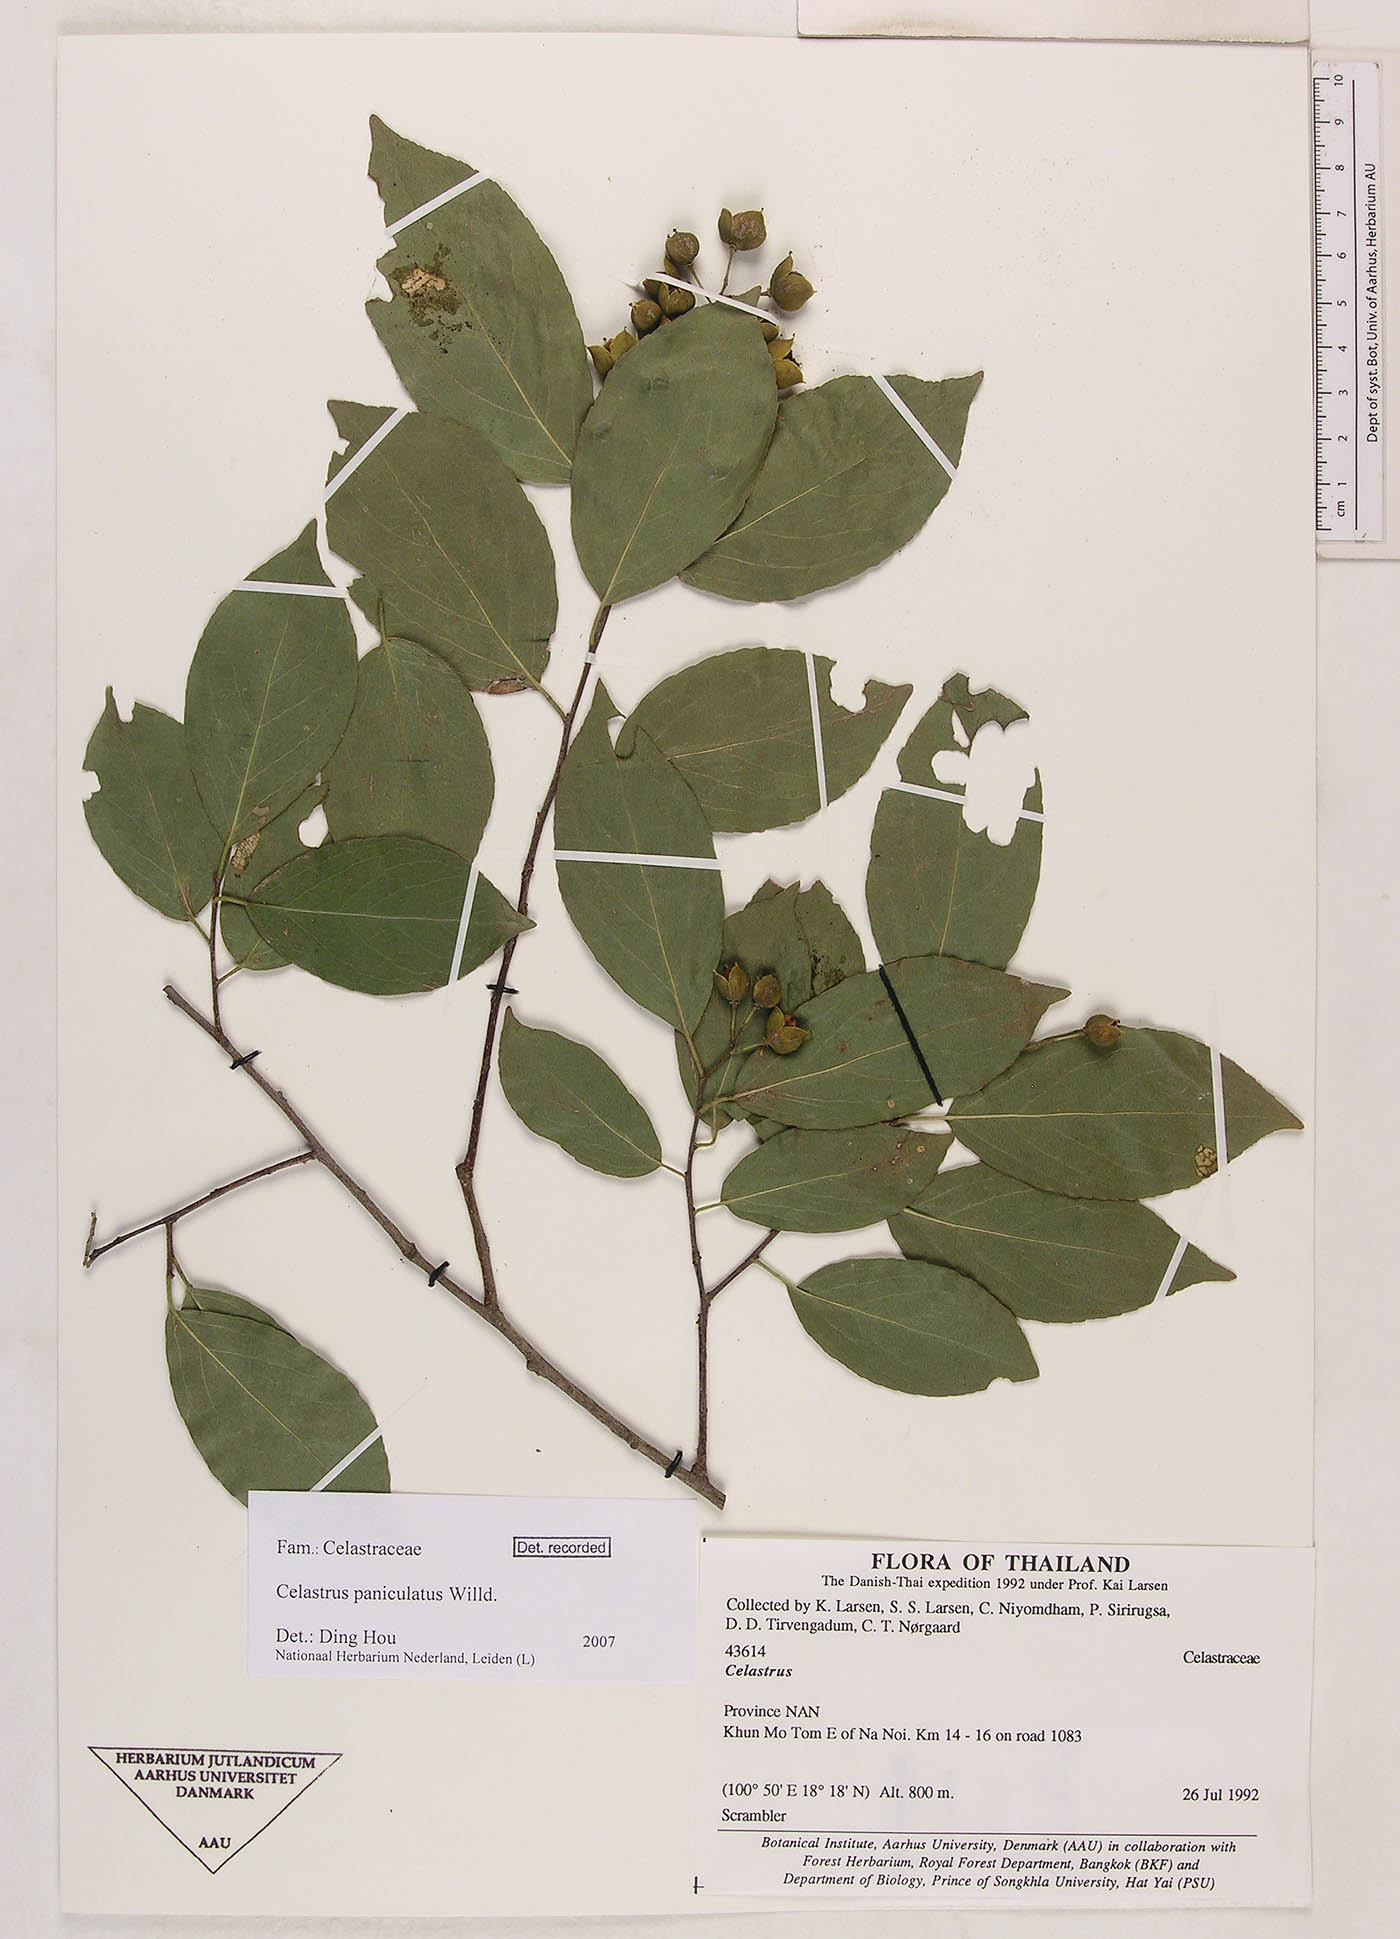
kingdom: Plantae
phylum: Tracheophyta
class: Magnoliopsida
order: Celastrales
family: Celastraceae
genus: Celastrus
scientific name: Celastrus paniculatus
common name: Oriental bittersweet; staff vine
